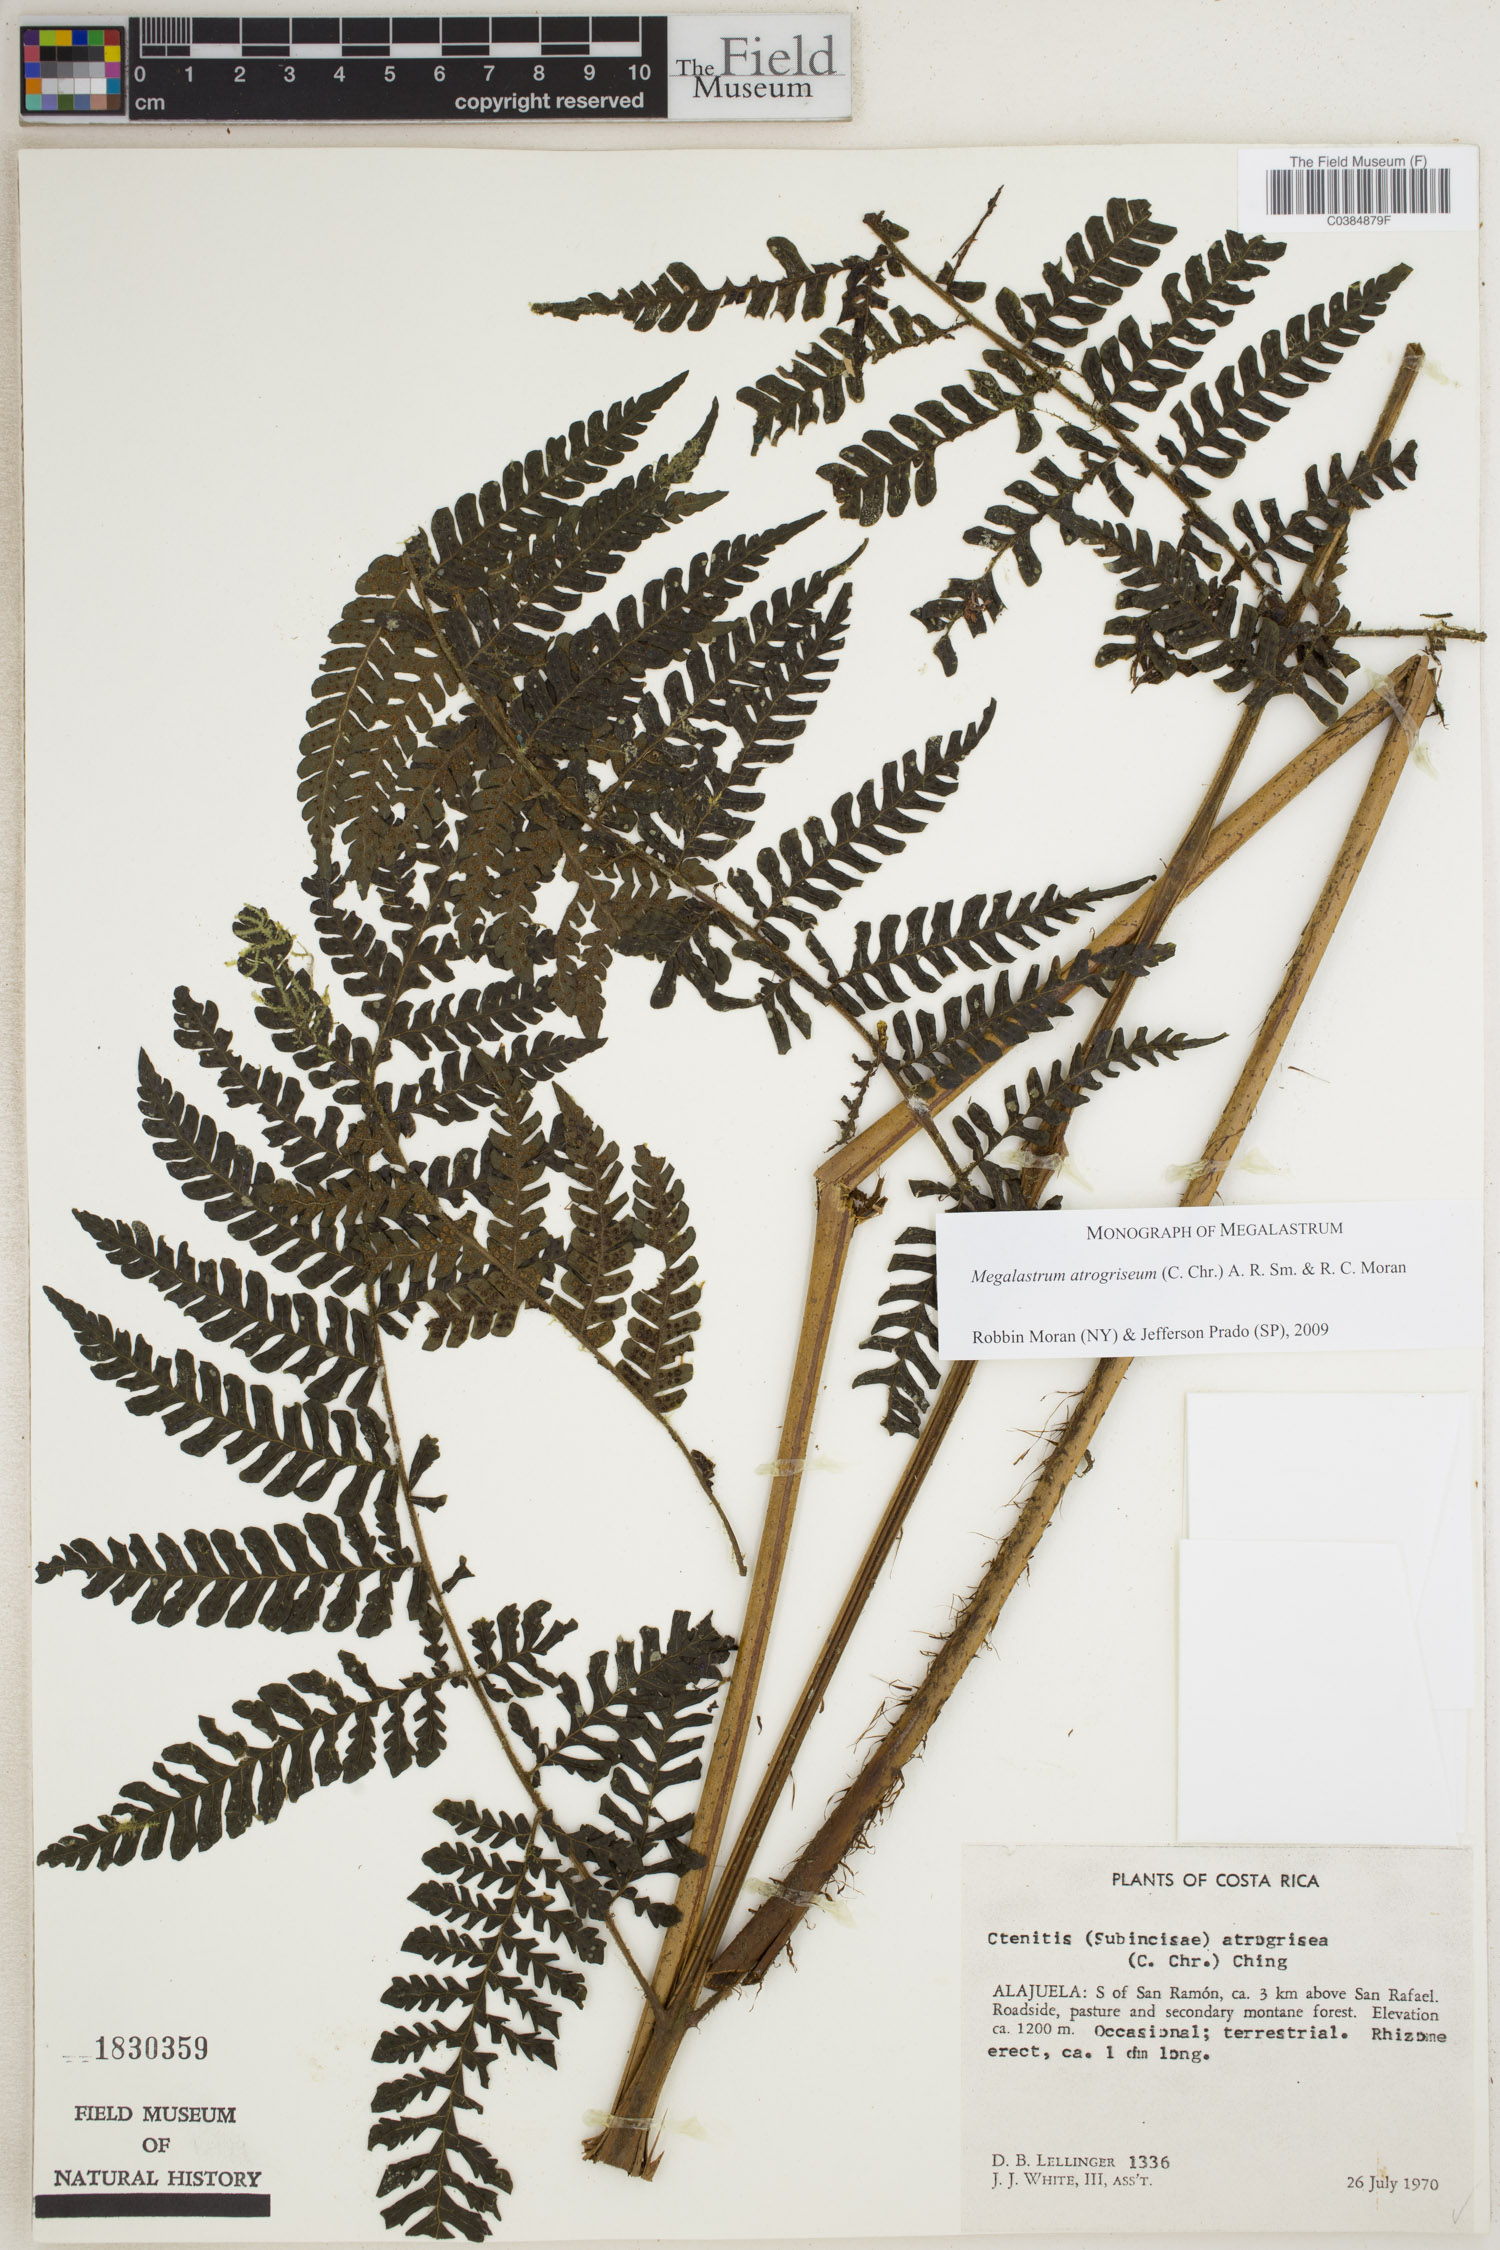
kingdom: Plantae
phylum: Tracheophyta
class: Polypodiopsida
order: Polypodiales
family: Dryopteridaceae
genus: Megalastrum
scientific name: Megalastrum atrogriseum
